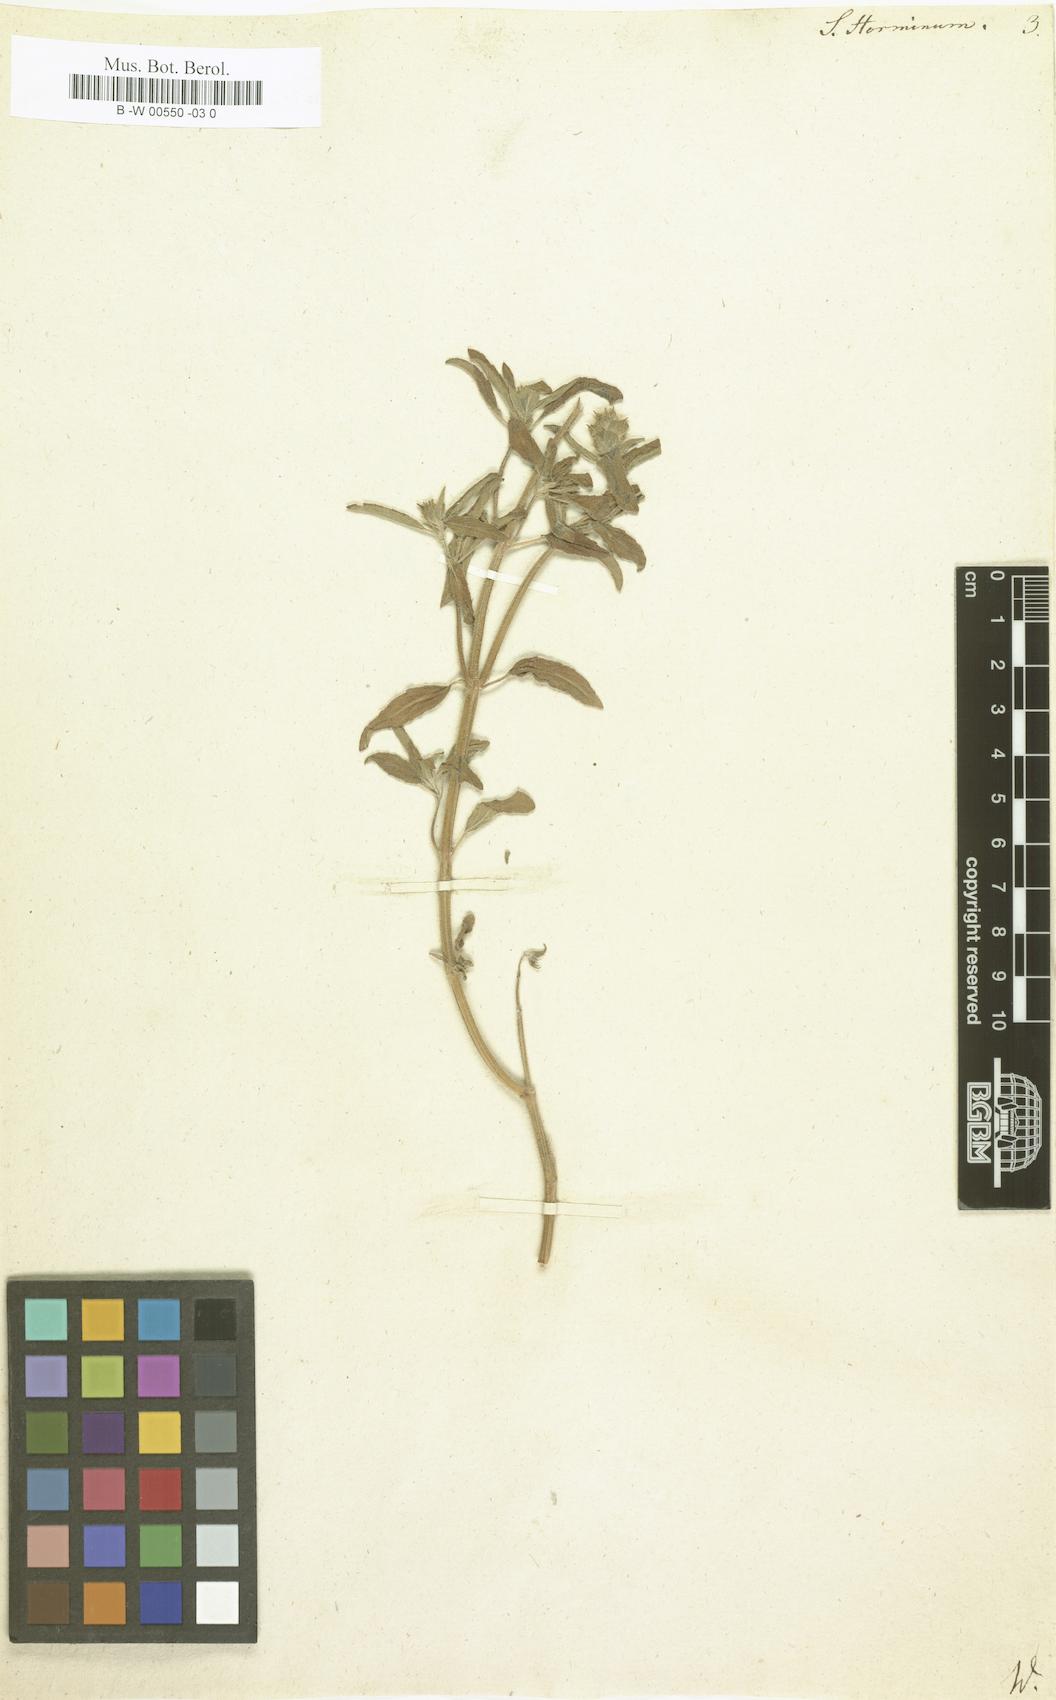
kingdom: Plantae
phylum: Tracheophyta
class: Magnoliopsida
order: Lamiales
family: Lamiaceae
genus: Salvia
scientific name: Salvia viridis
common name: Annual clary
